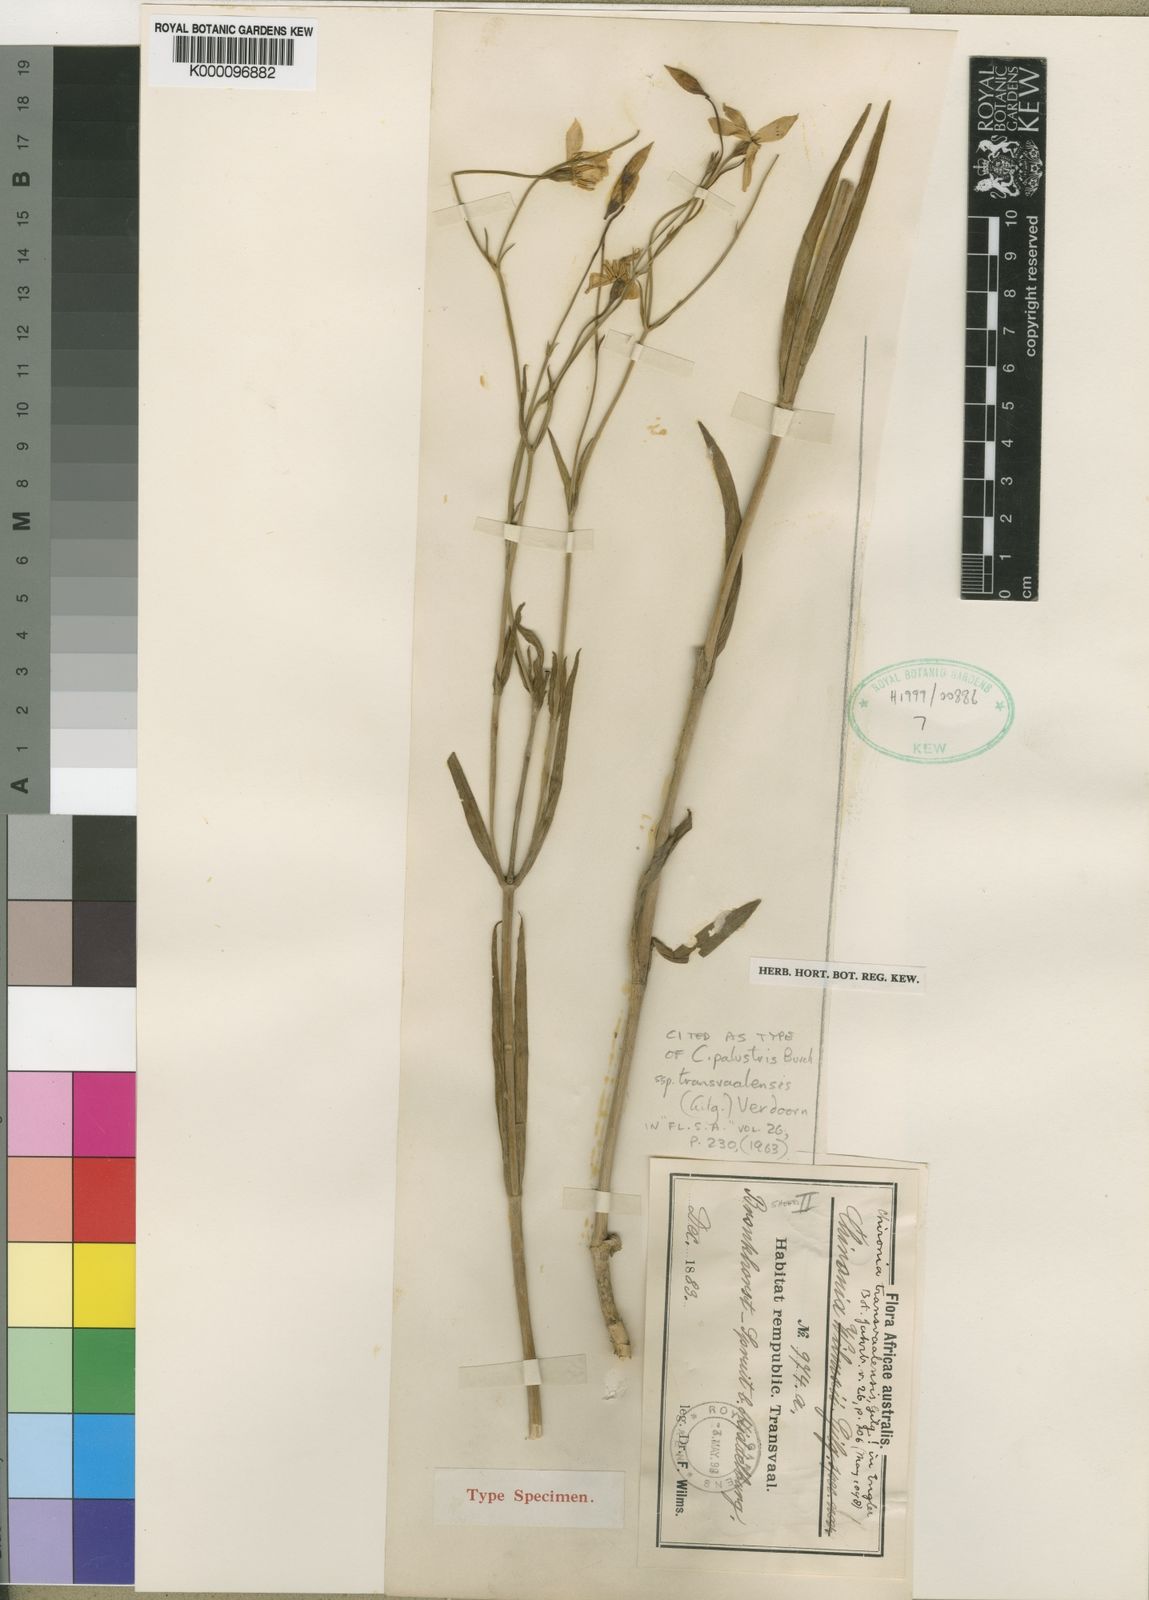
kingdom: Plantae
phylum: Tracheophyta
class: Magnoliopsida
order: Gentianales
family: Gentianaceae
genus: Chironia
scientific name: Chironia palustris
